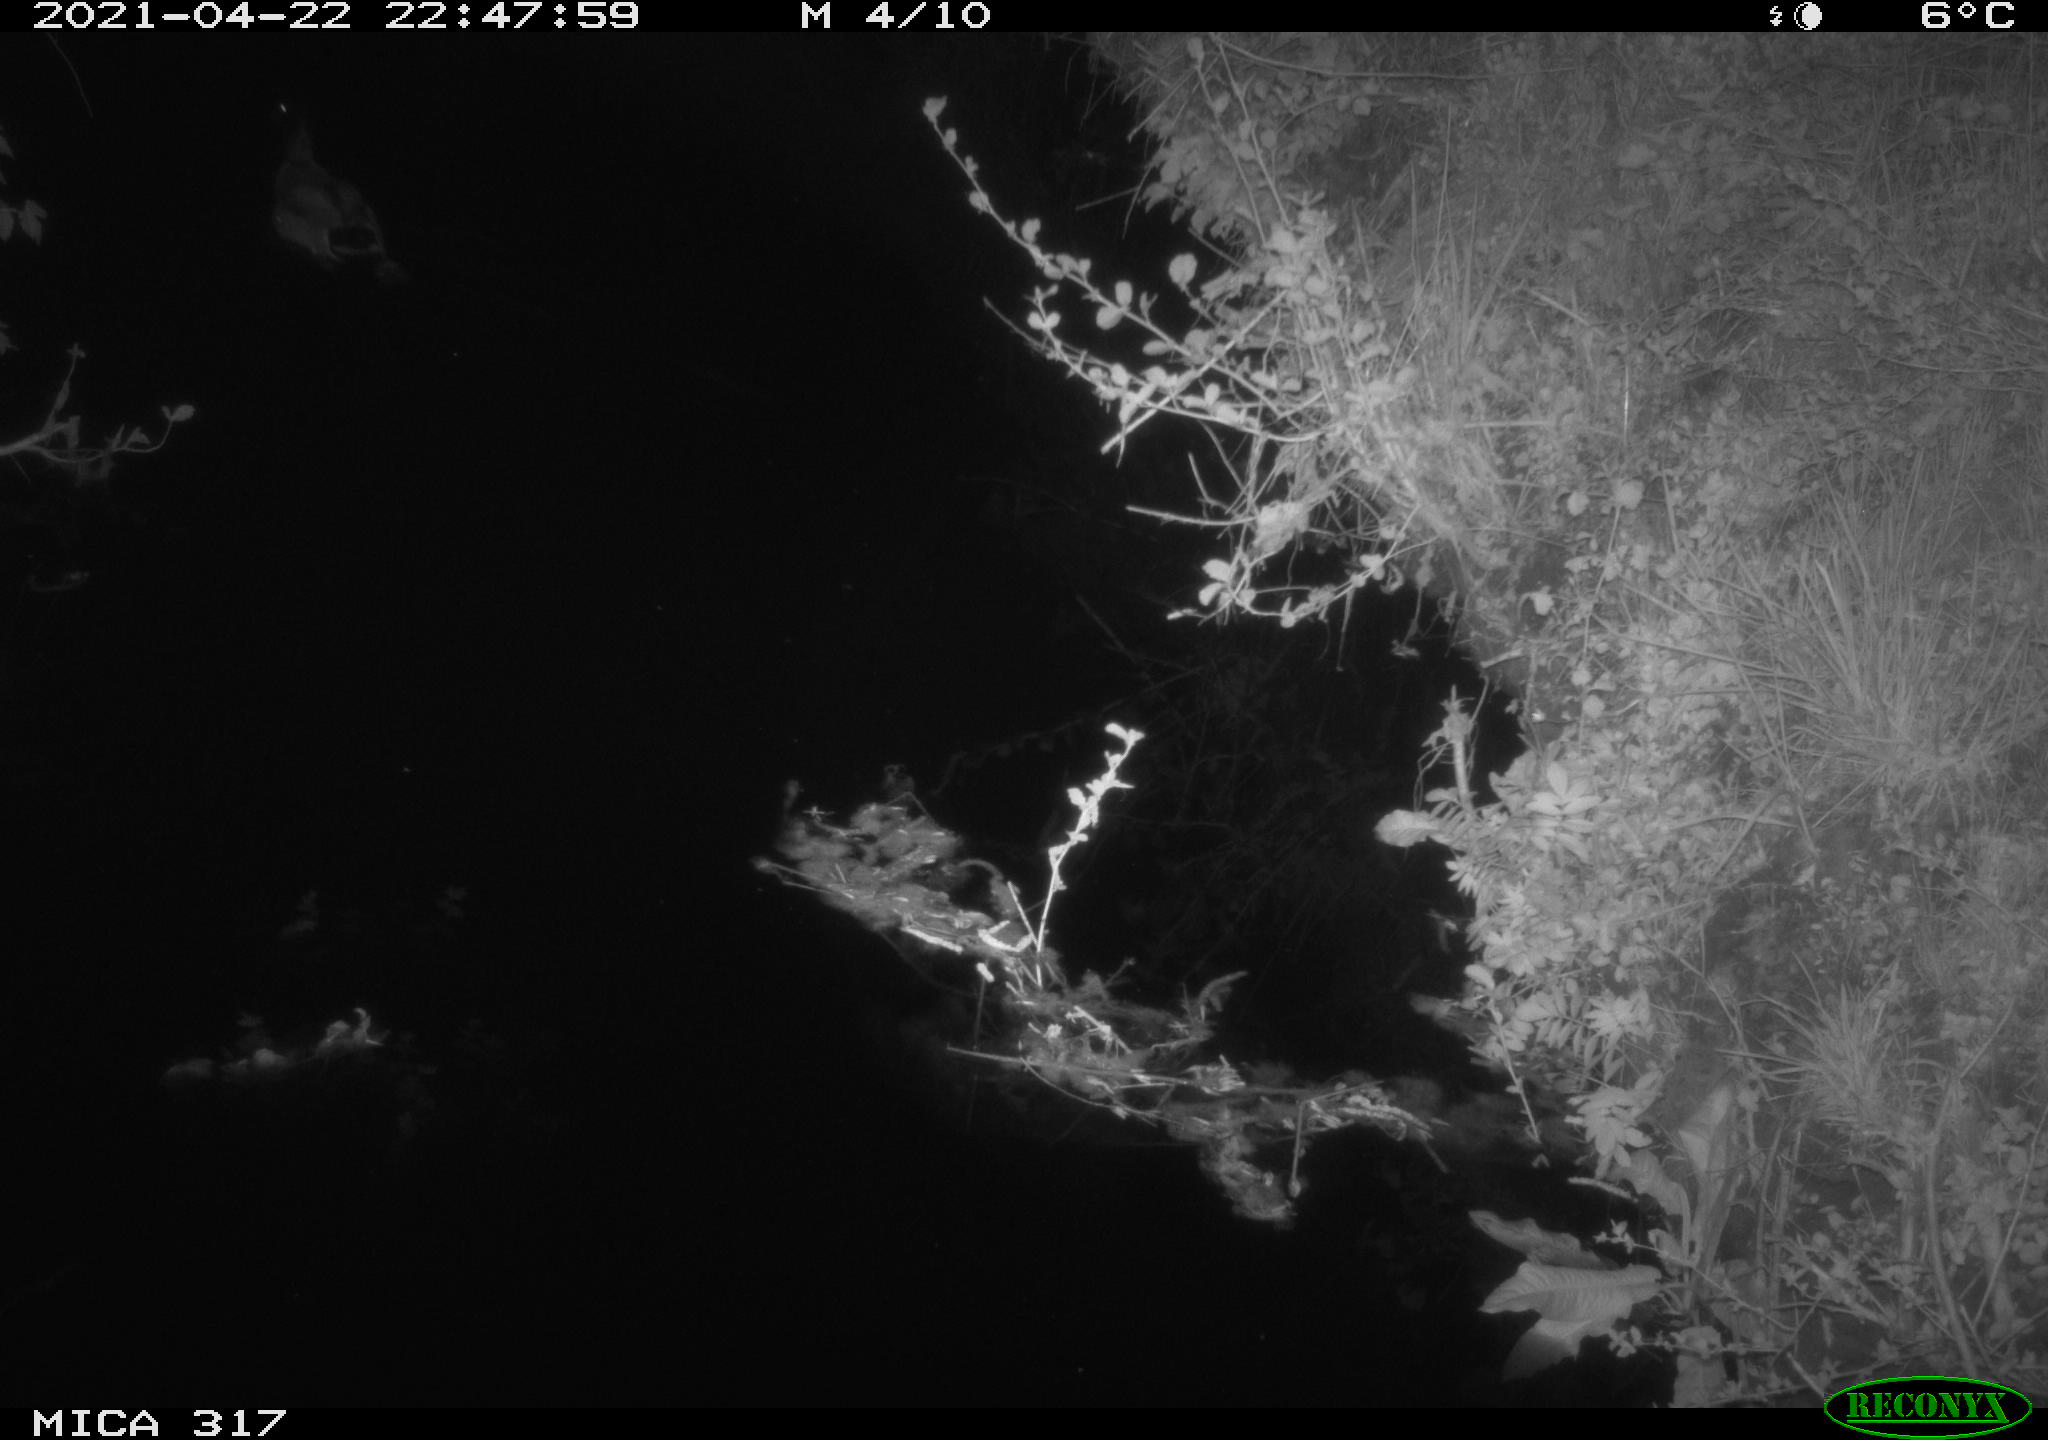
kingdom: Animalia
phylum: Chordata
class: Aves
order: Anseriformes
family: Anatidae
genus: Anas
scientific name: Anas
